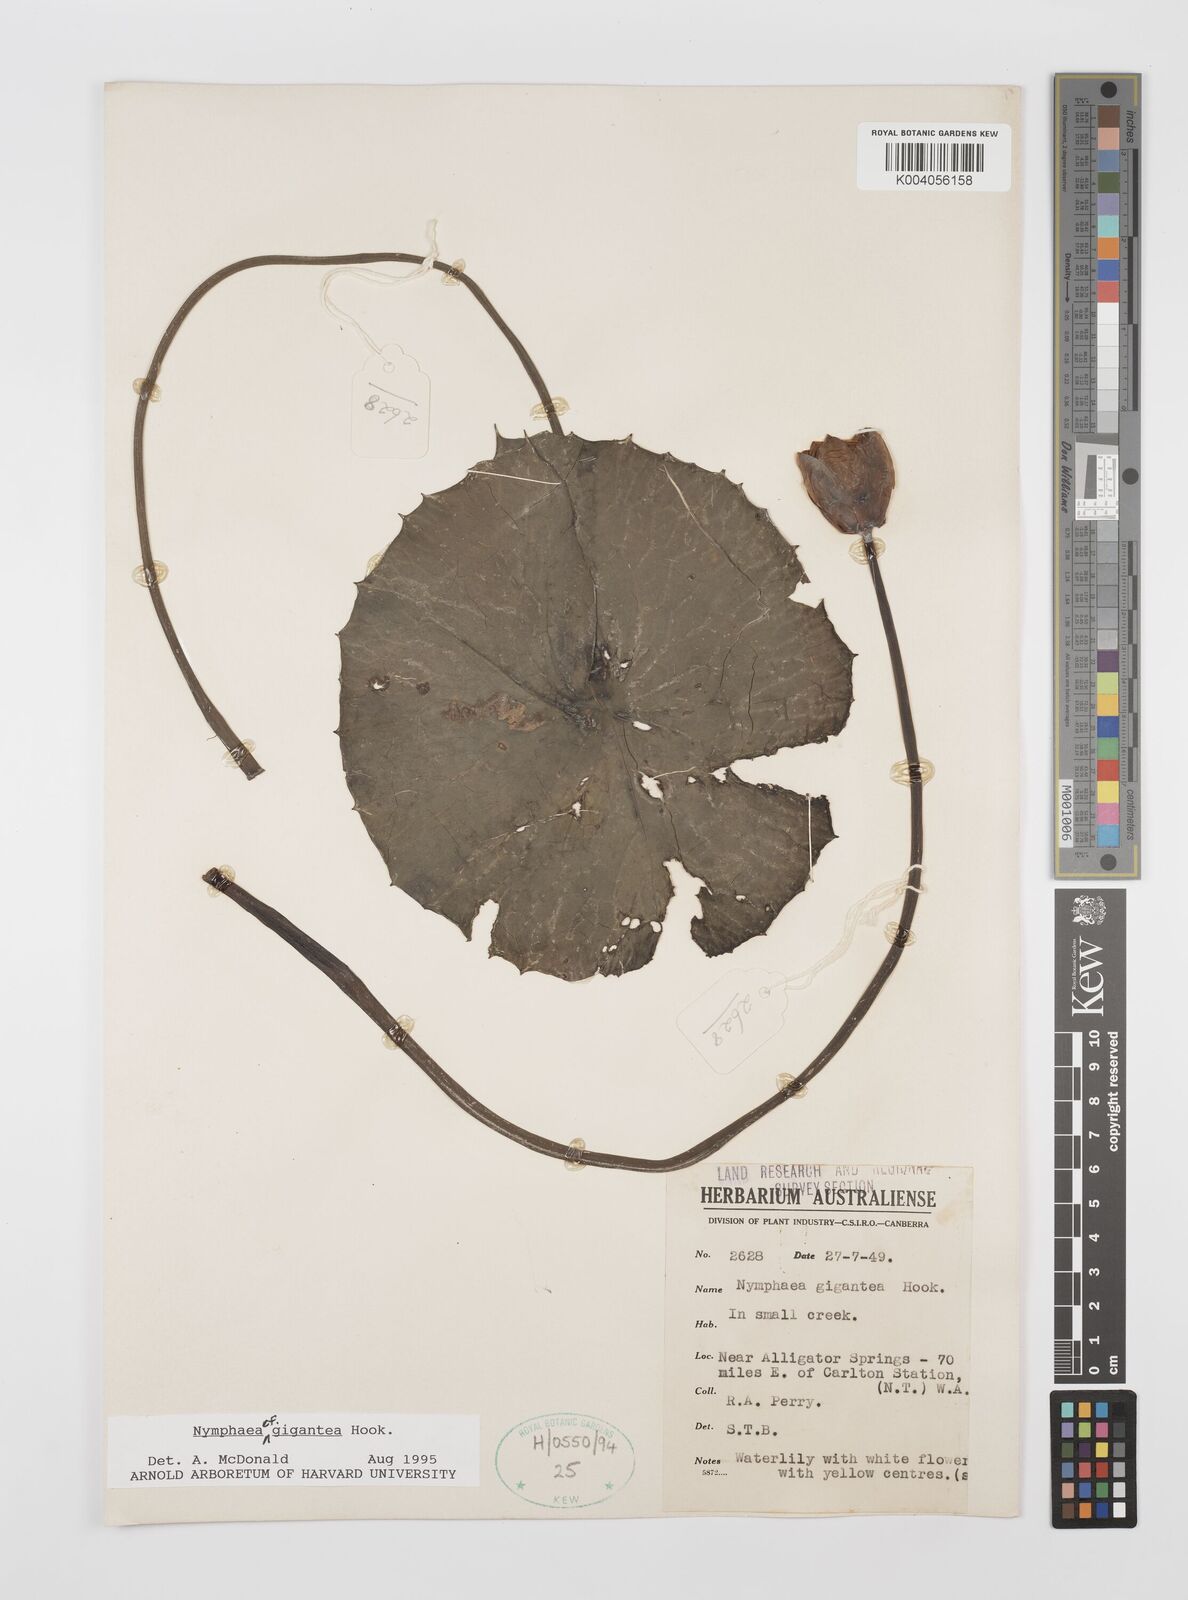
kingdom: Plantae
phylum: Tracheophyta
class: Magnoliopsida
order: Nymphaeales
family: Nymphaeaceae
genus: Nymphaea
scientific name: Nymphaea gigantea
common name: Giant water-lily
